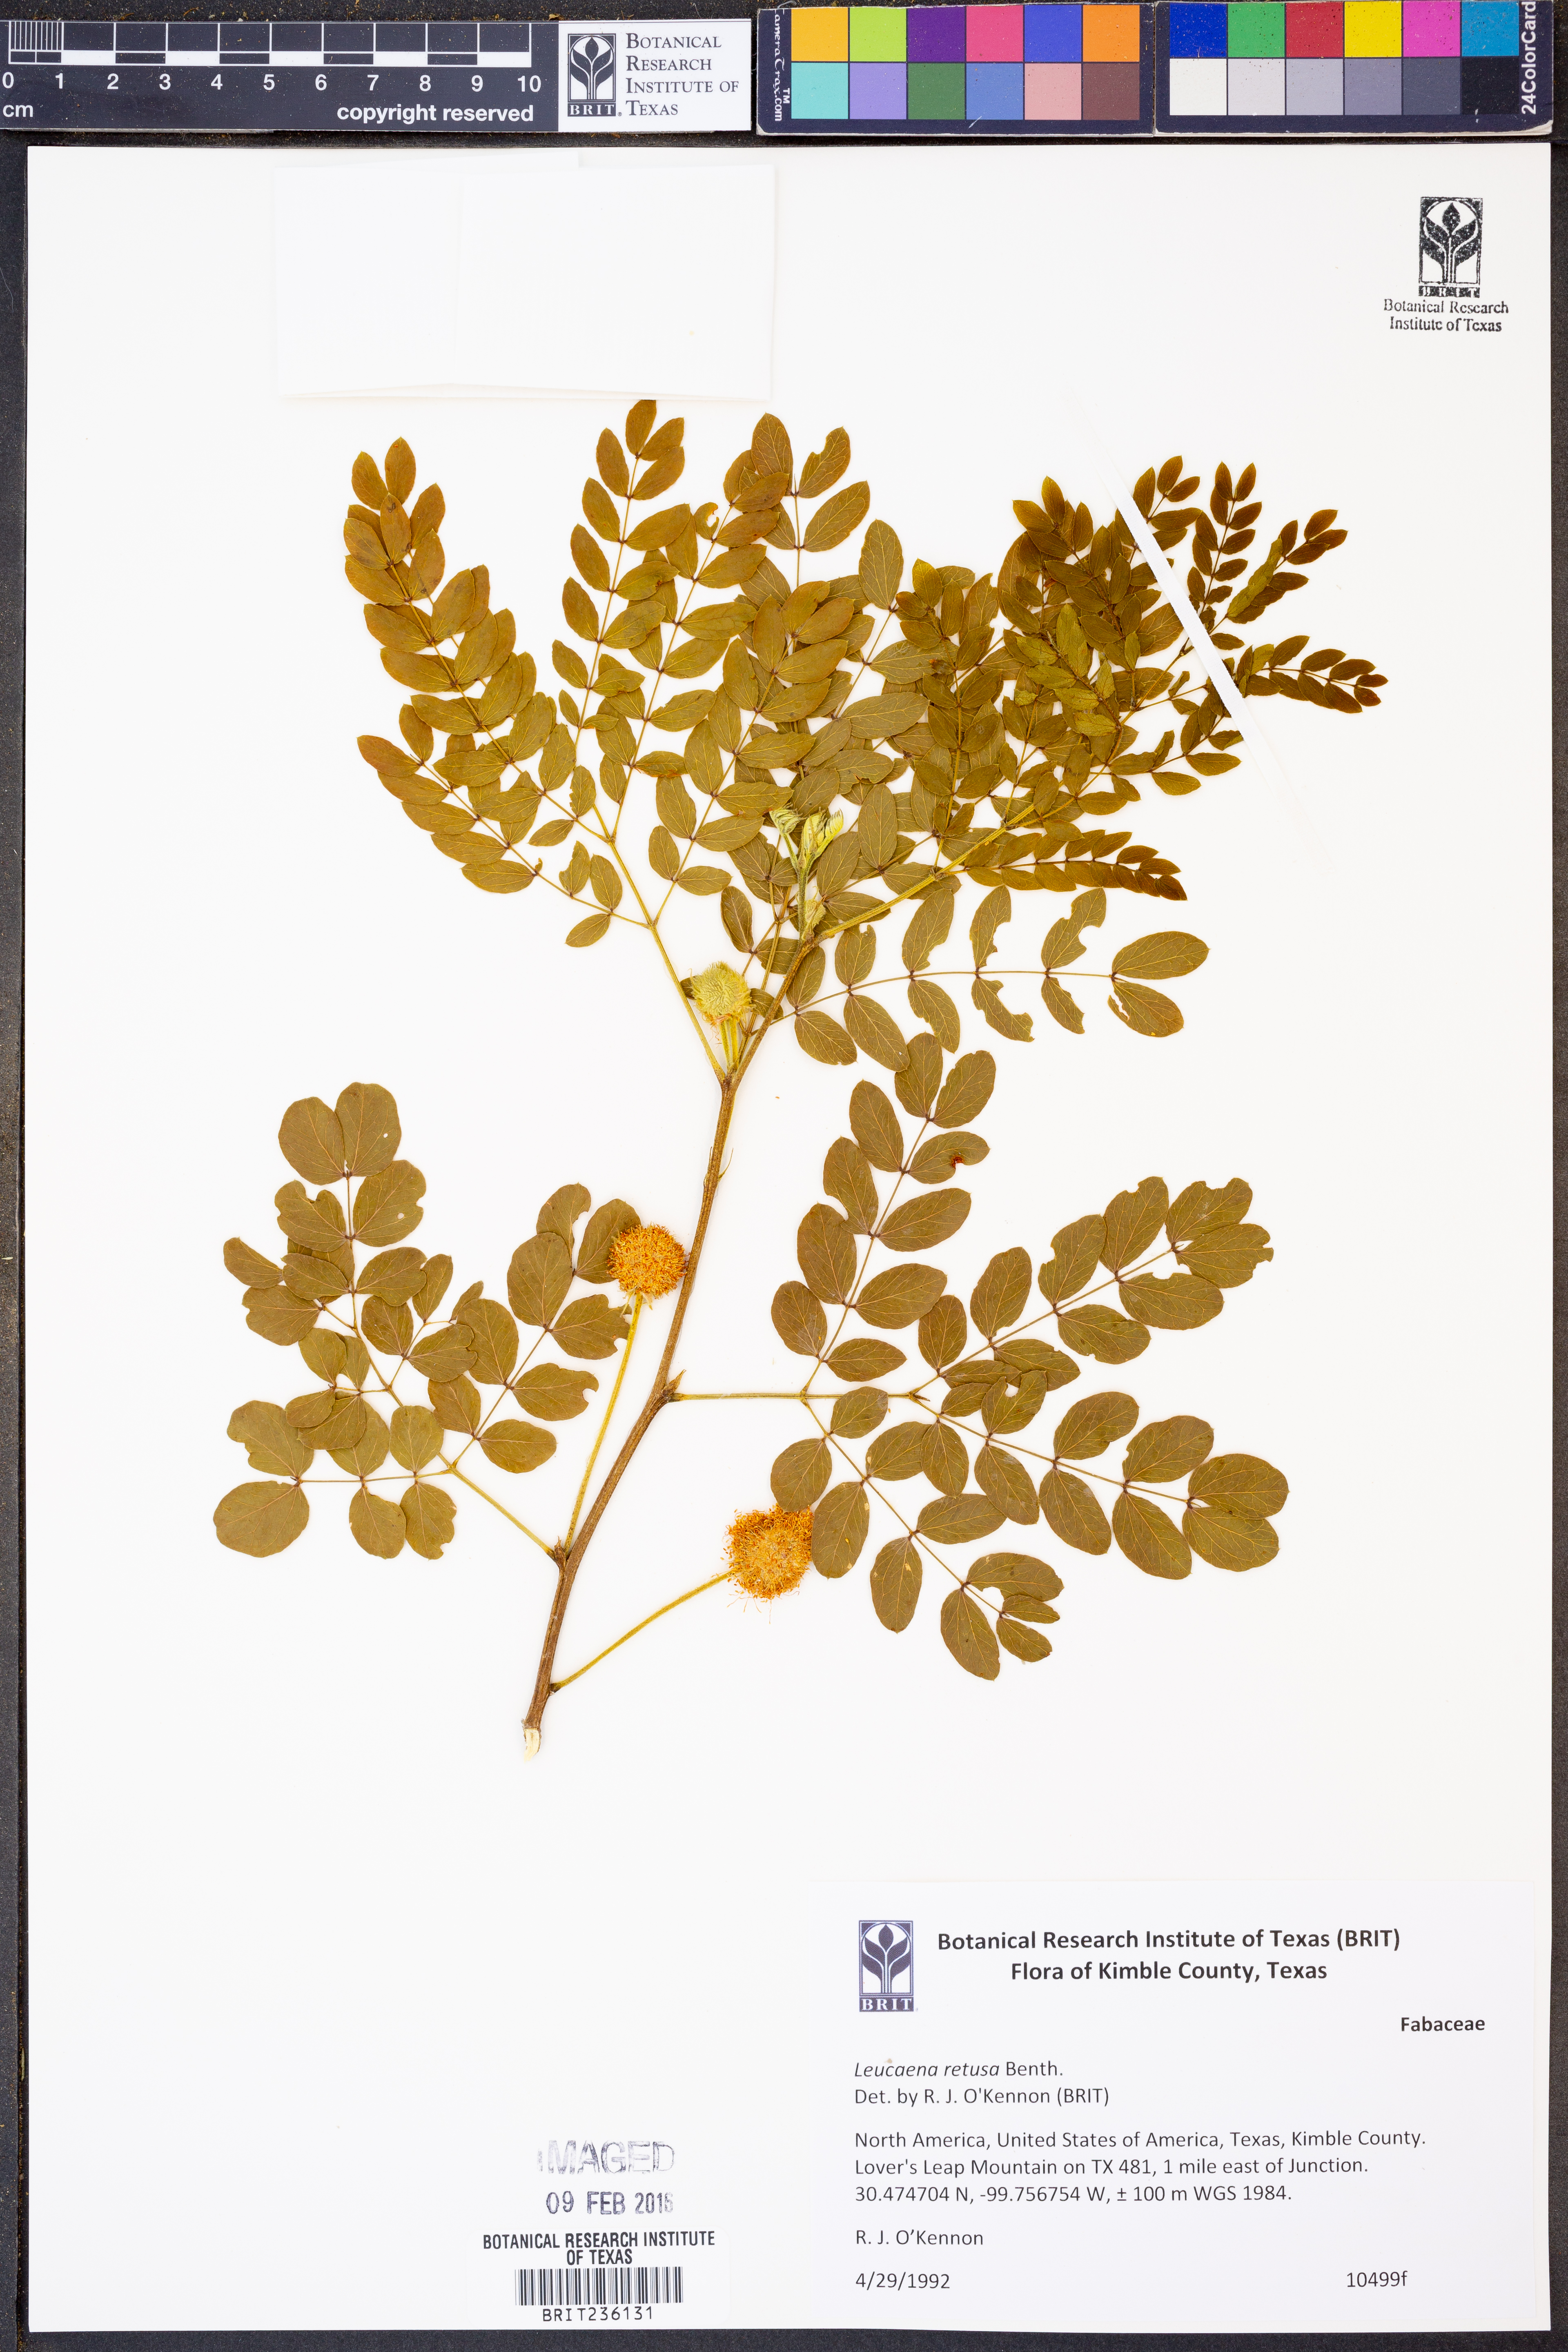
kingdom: Plantae
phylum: Tracheophyta
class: Magnoliopsida
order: Fabales
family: Fabaceae
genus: Leucaena
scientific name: Leucaena retusa
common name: Littleleaf leadtree
